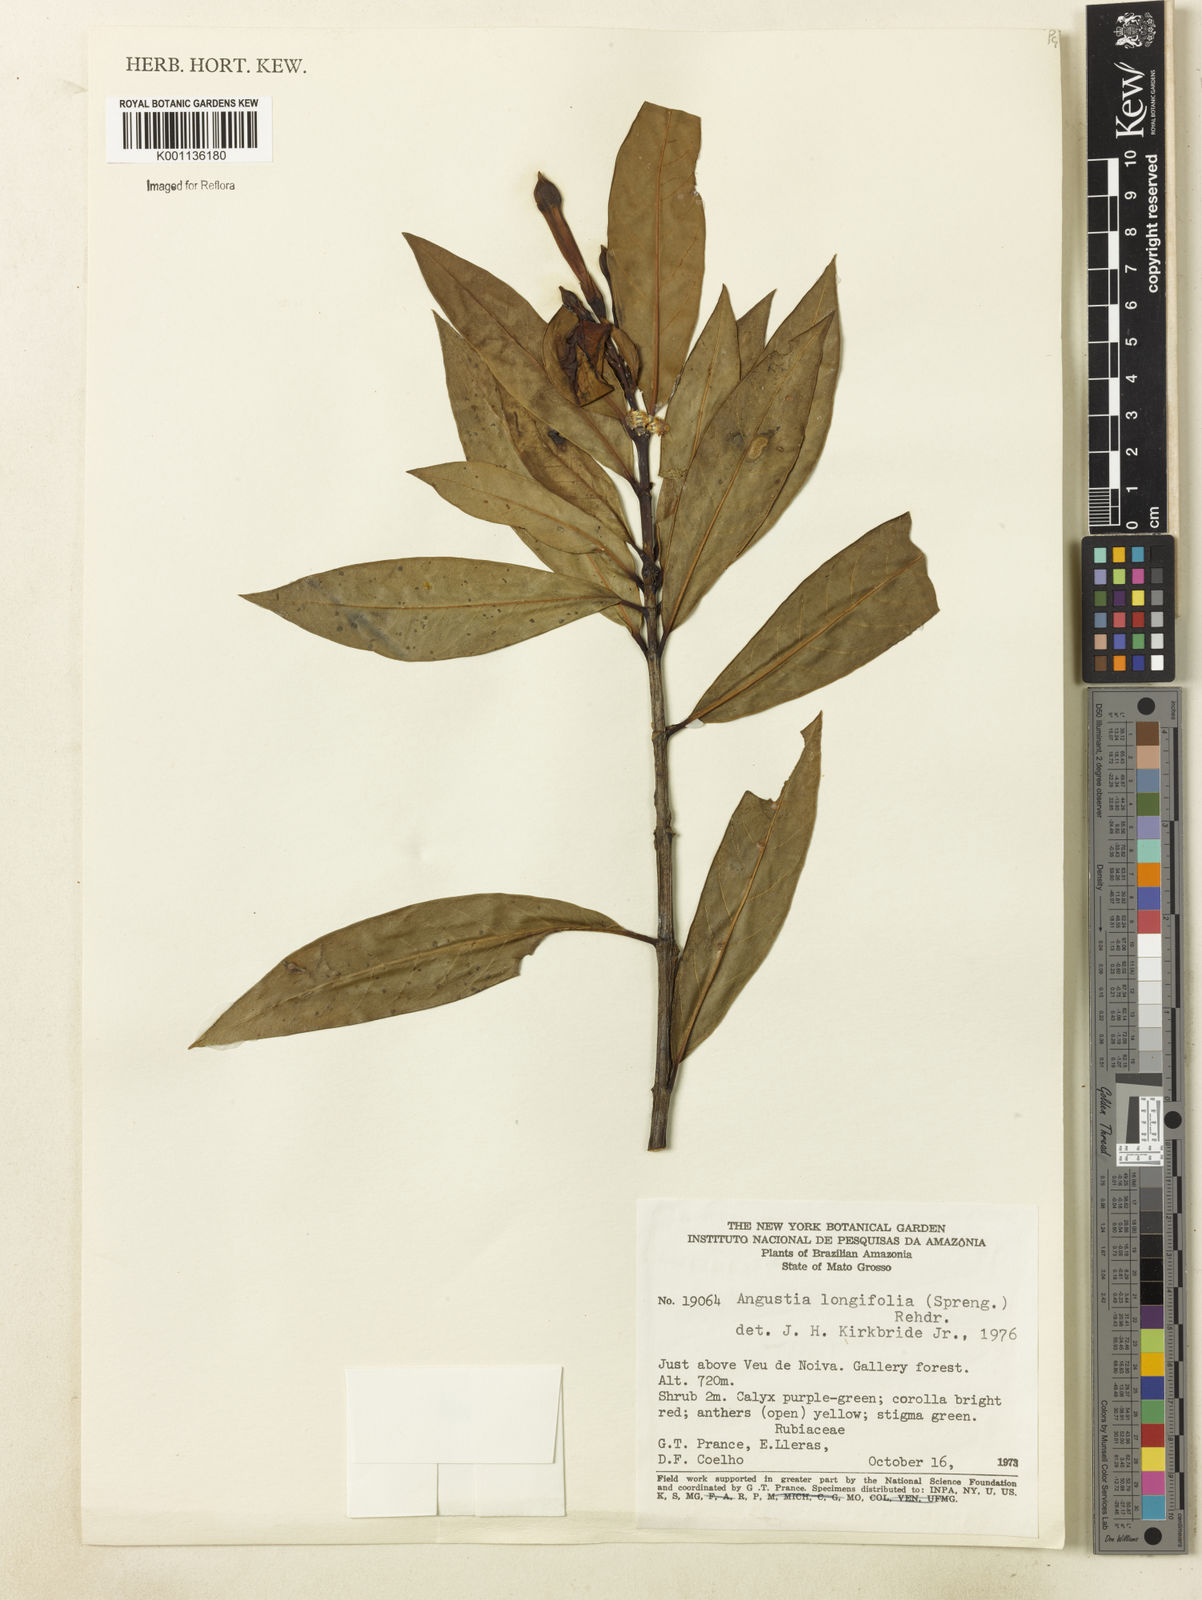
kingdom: Plantae
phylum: Tracheophyta
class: Magnoliopsida
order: Gentianales
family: Rubiaceae
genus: Augusta
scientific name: Augusta longifolia
